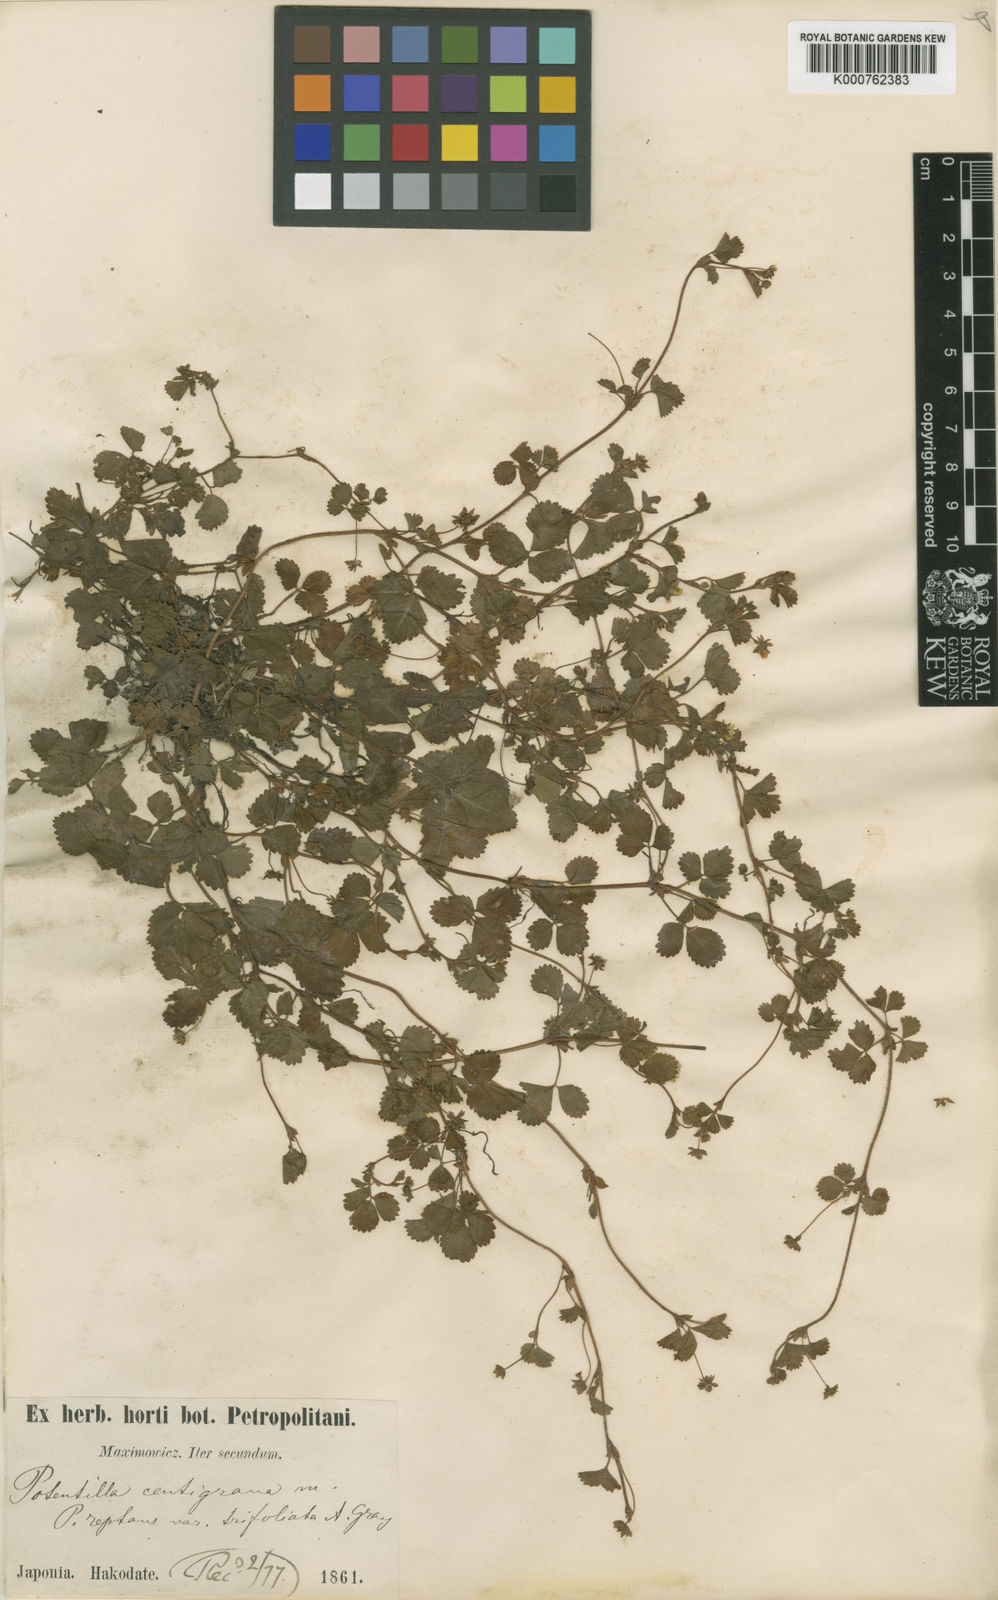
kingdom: Plantae
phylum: Tracheophyta
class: Magnoliopsida
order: Rosales
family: Rosaceae
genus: Potentilla
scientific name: Potentilla centigrana
